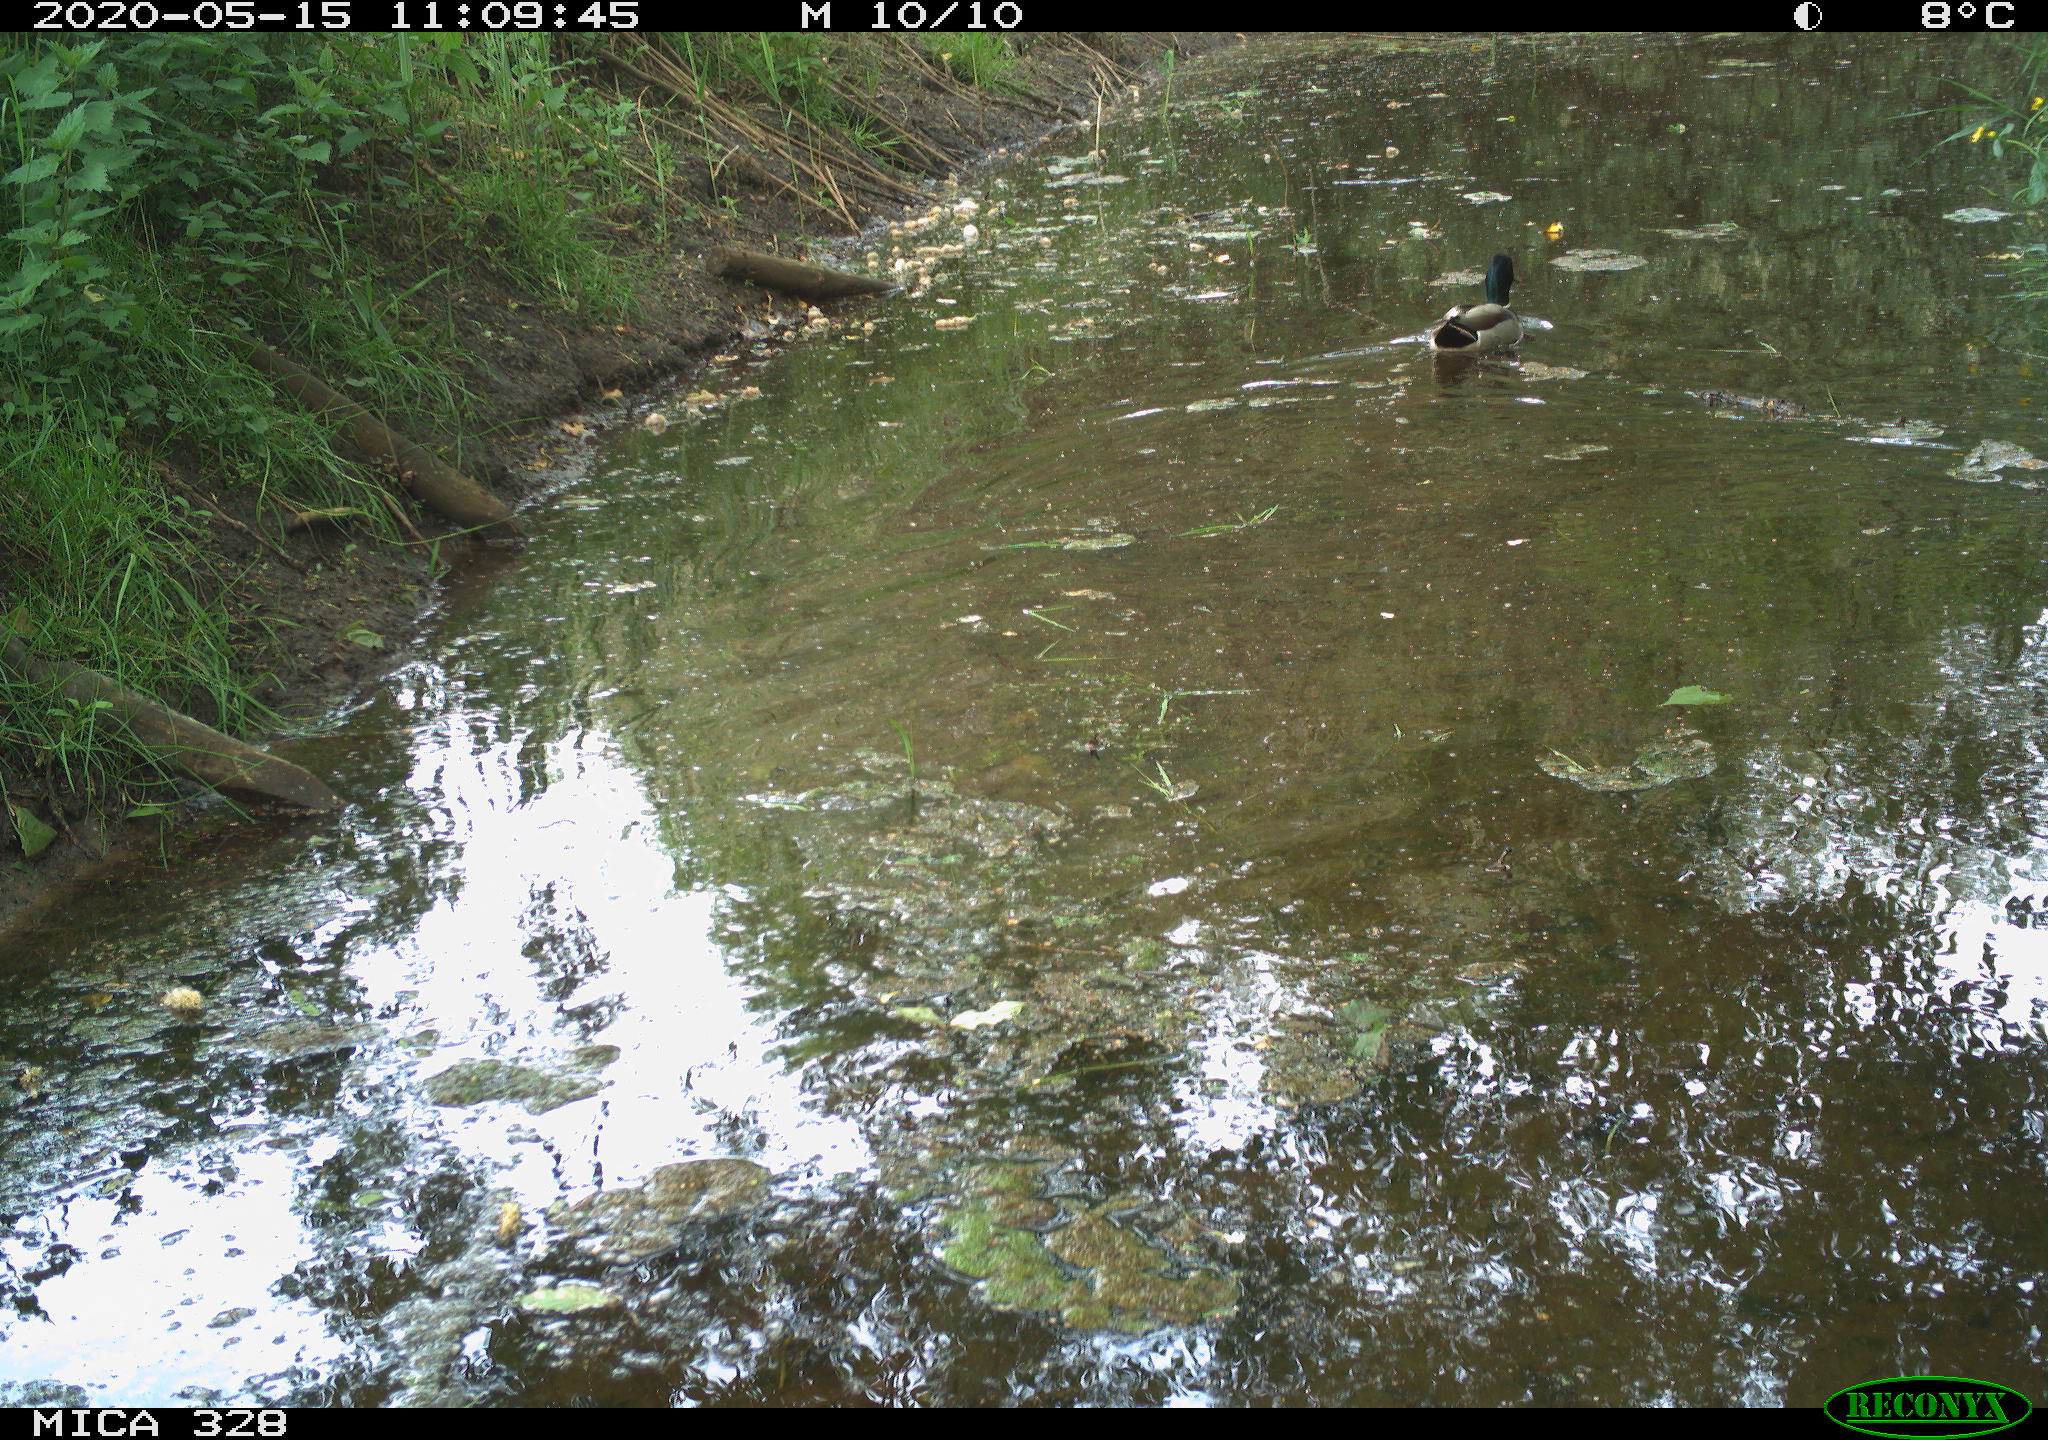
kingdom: Animalia
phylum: Chordata
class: Aves
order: Anseriformes
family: Anatidae
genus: Anas
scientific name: Anas platyrhynchos
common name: Mallard
